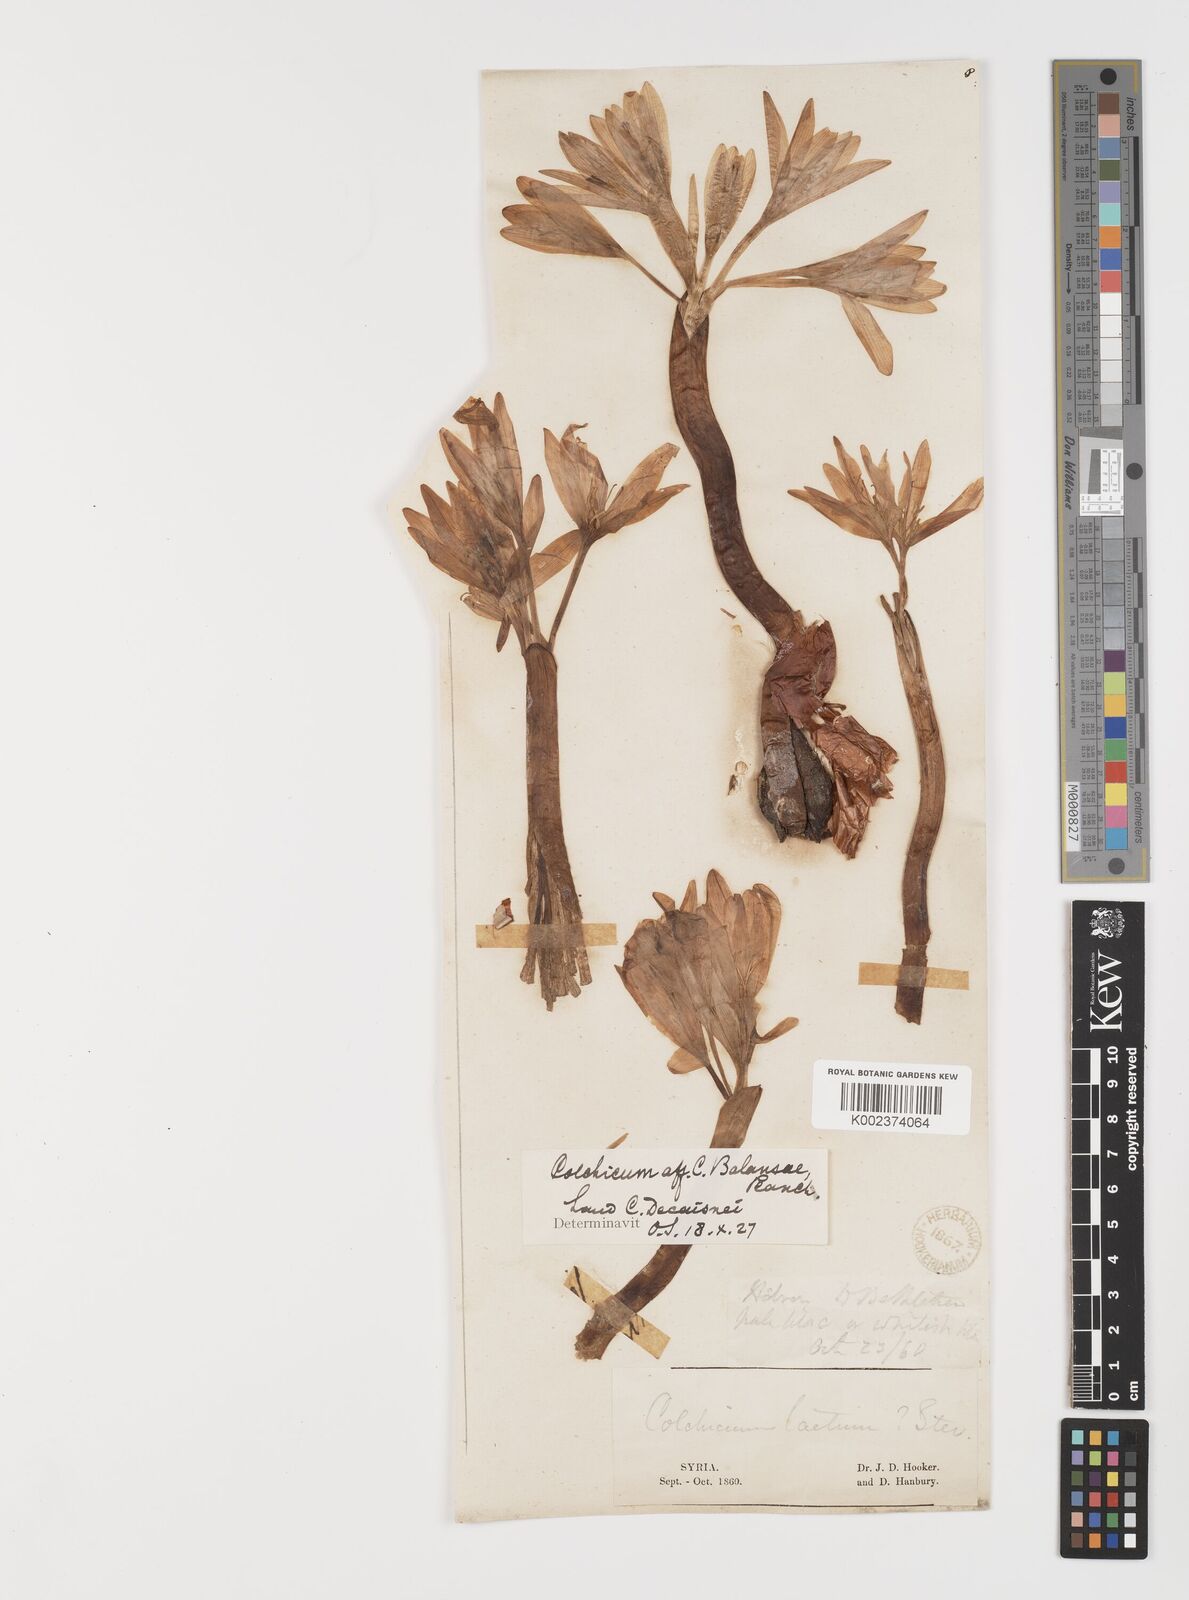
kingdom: Plantae
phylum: Tracheophyta
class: Liliopsida
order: Liliales
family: Colchicaceae
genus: Colchicum
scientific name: Colchicum balansae
